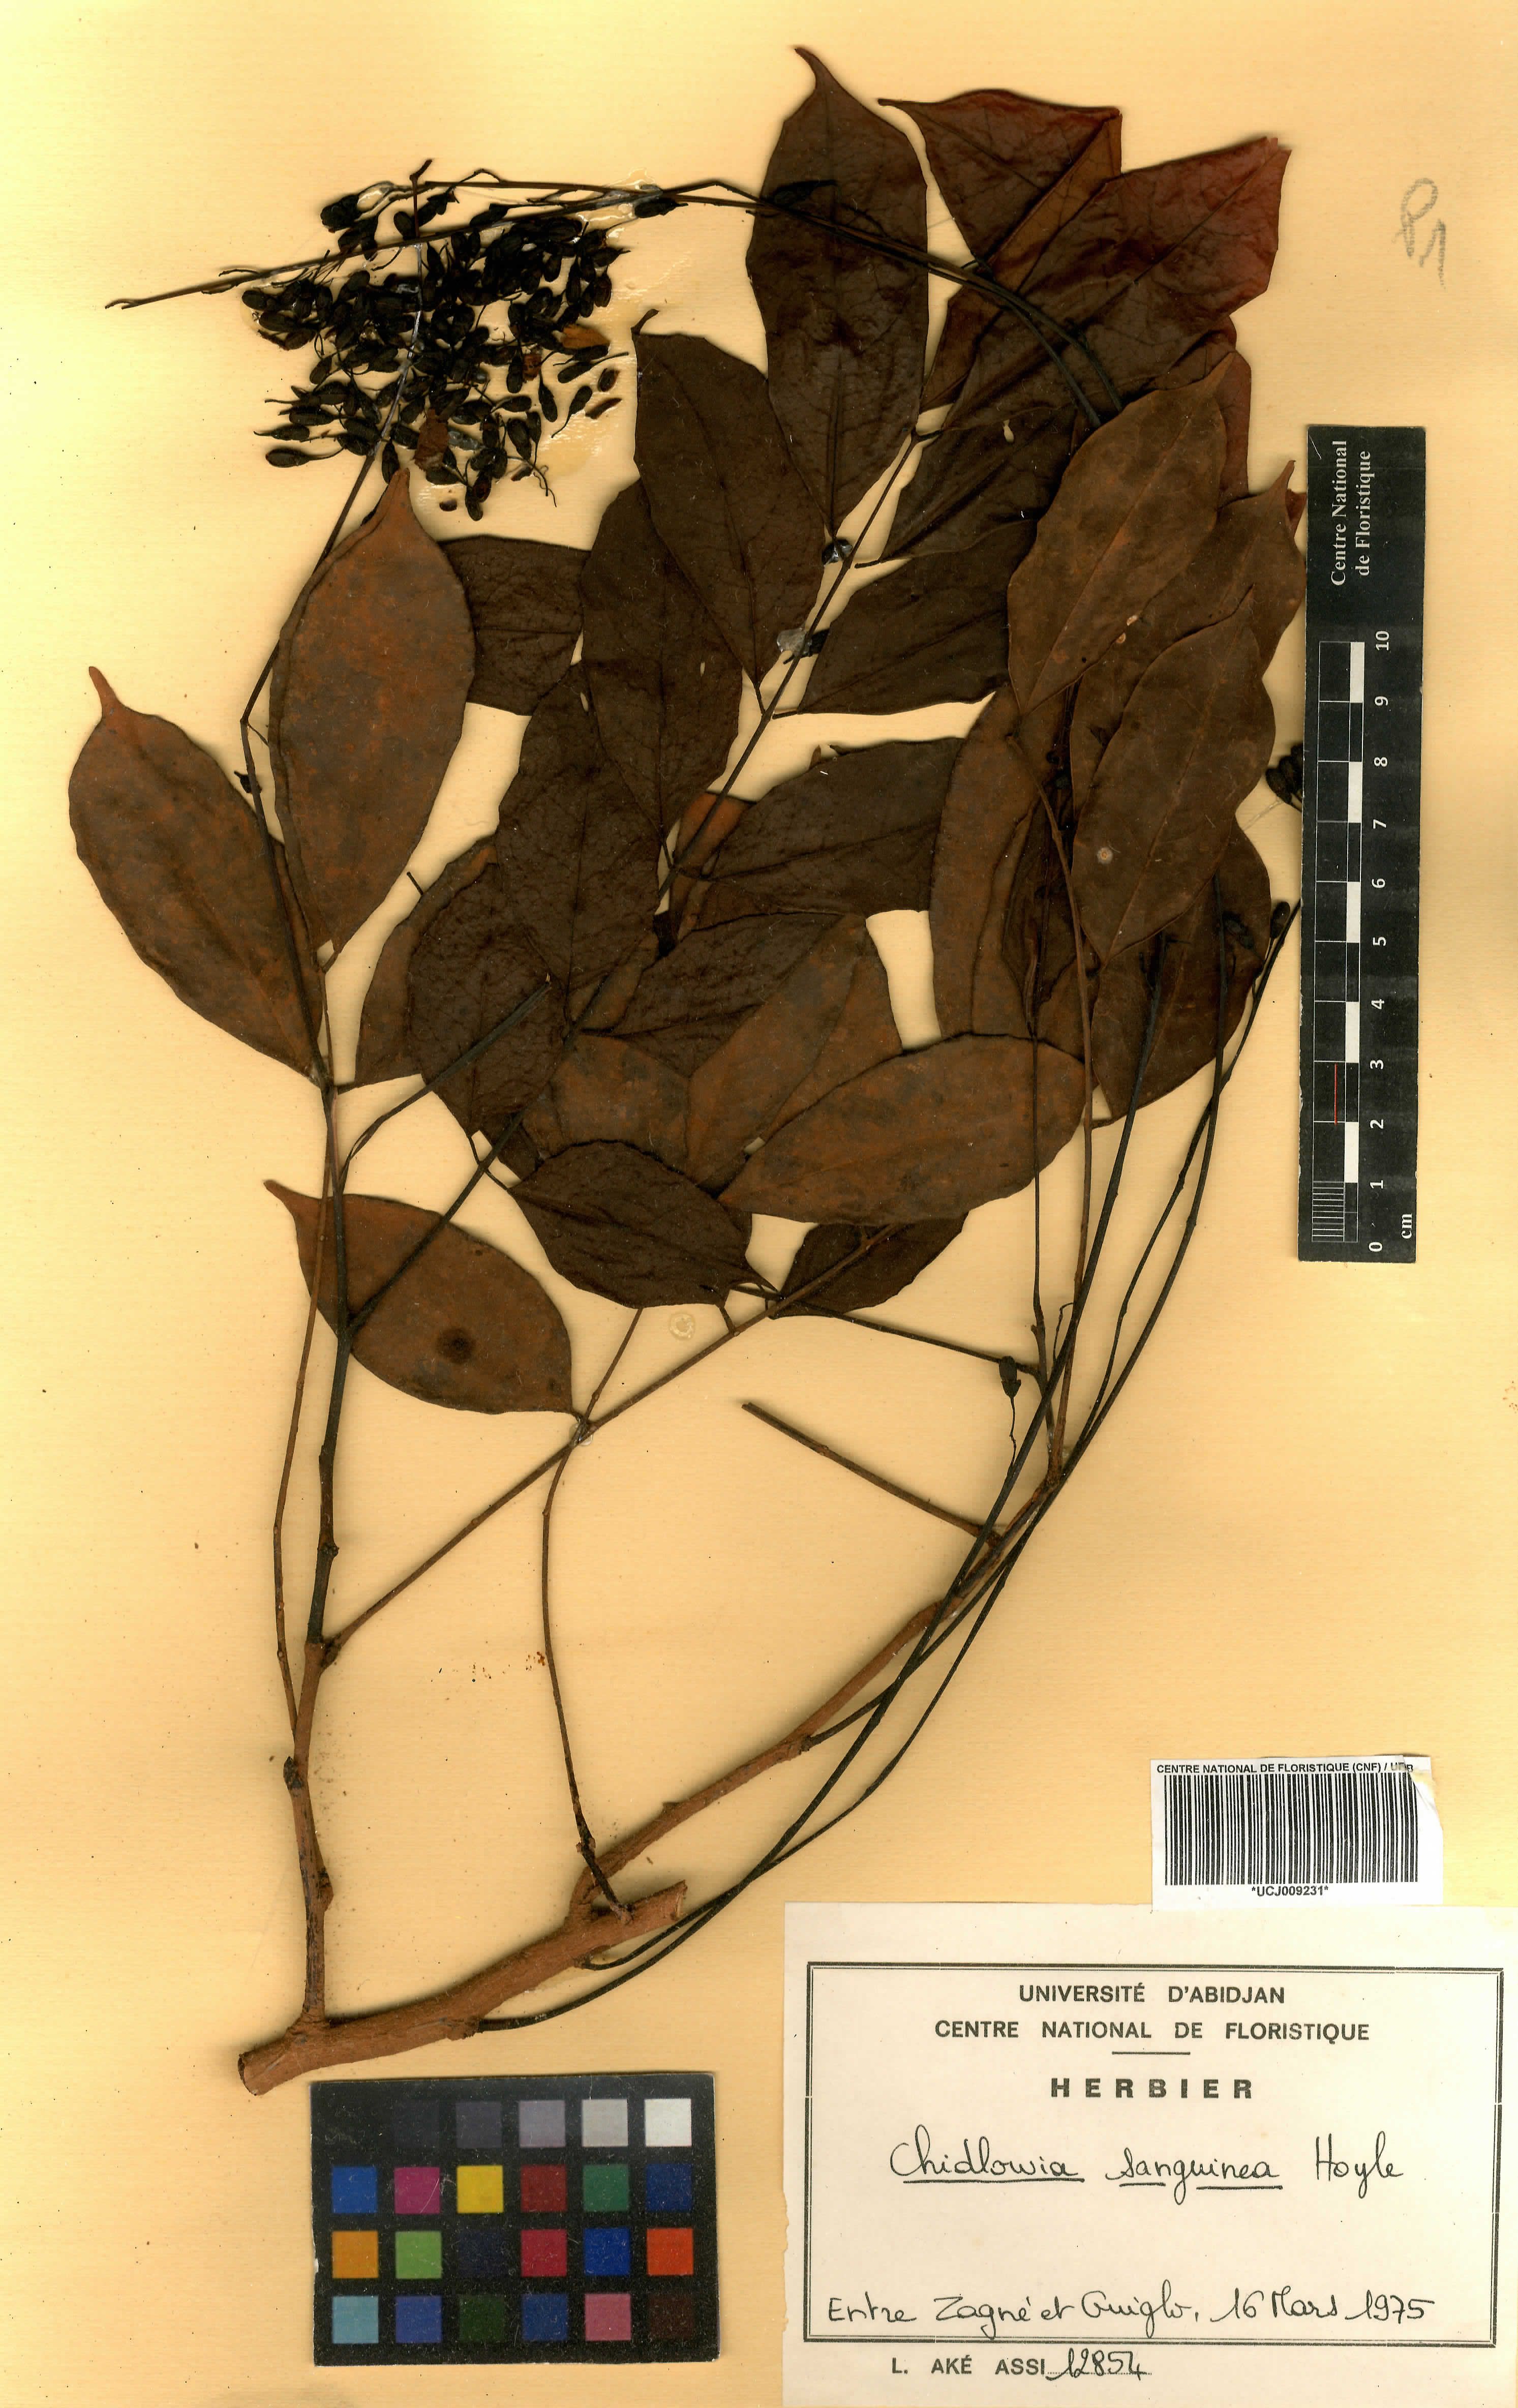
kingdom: Plantae
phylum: Tracheophyta
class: Magnoliopsida
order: Fabales
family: Fabaceae
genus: Chidlowia
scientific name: Chidlowia sanguinea
